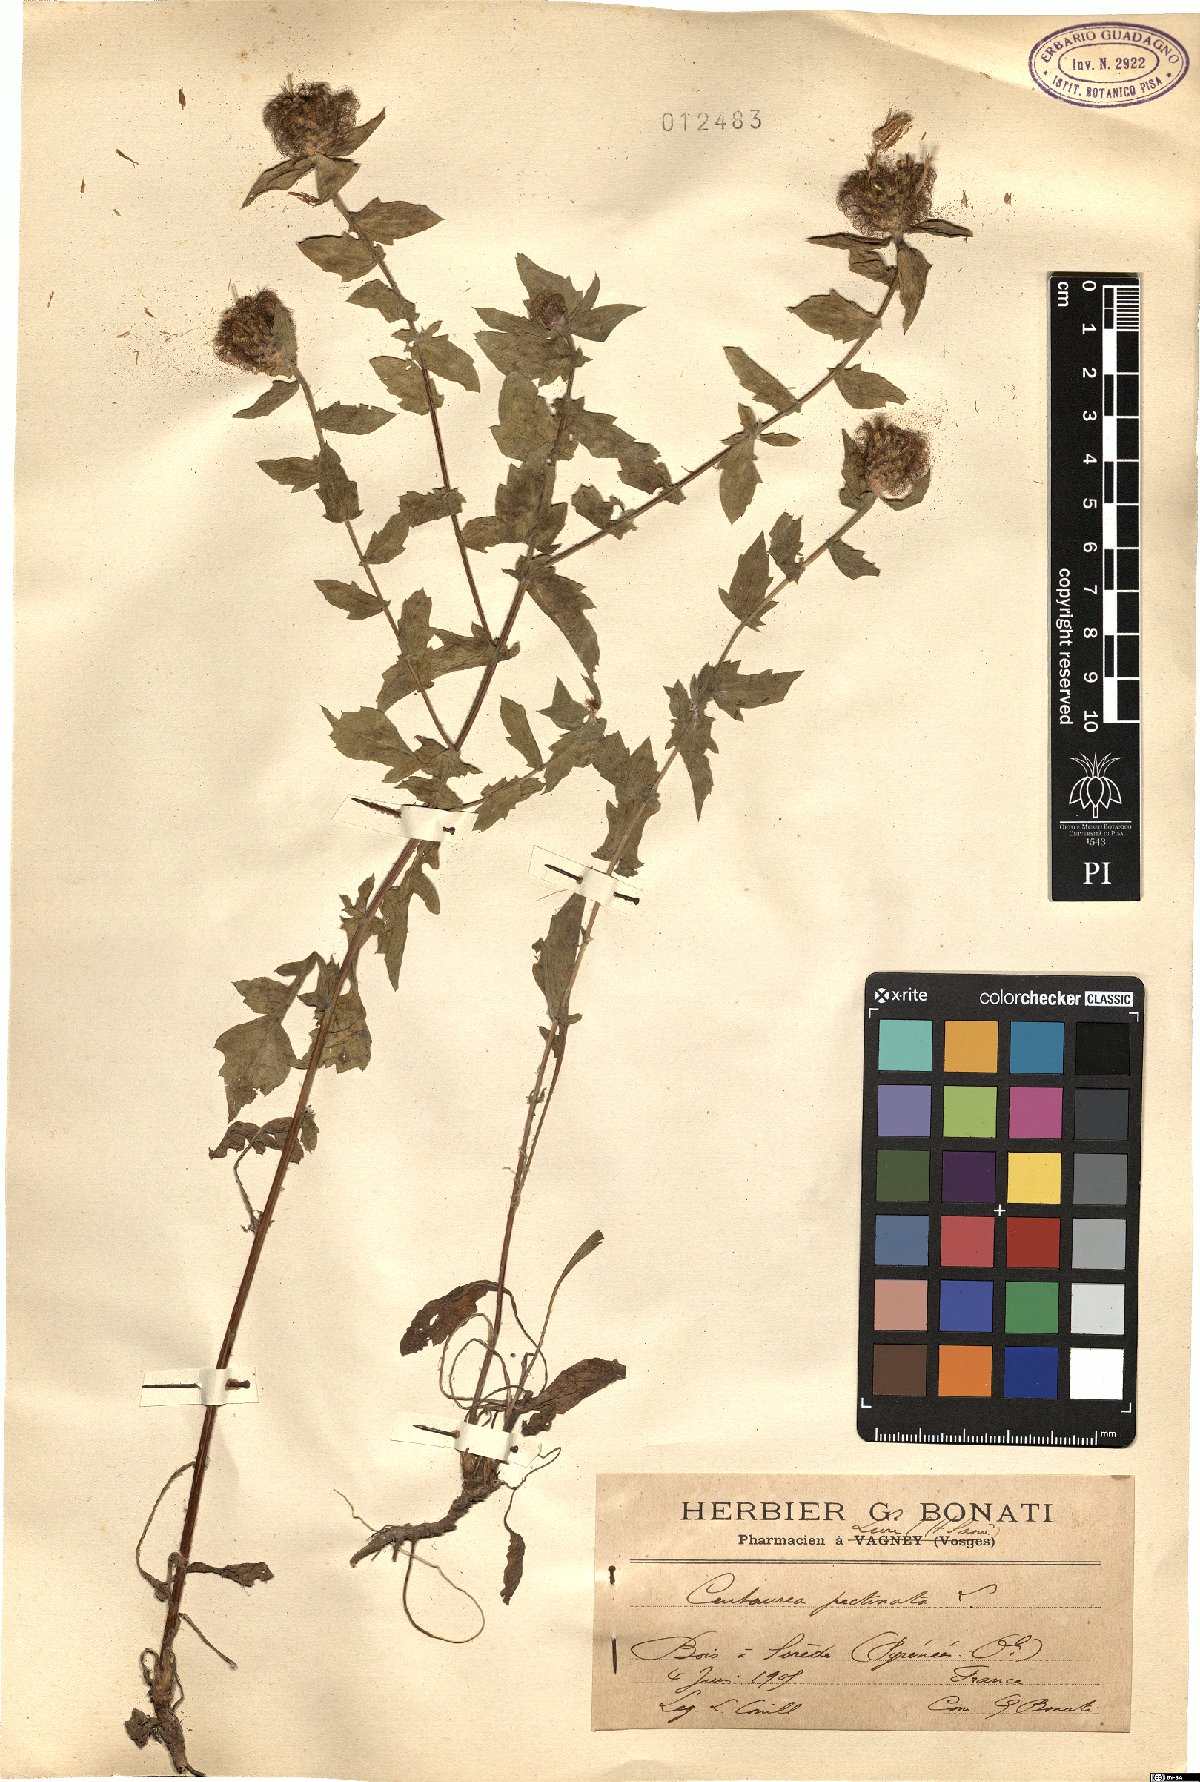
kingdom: Plantae
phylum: Tracheophyta
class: Magnoliopsida
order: Asterales
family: Asteraceae
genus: Centaurea
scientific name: Centaurea pectinata
